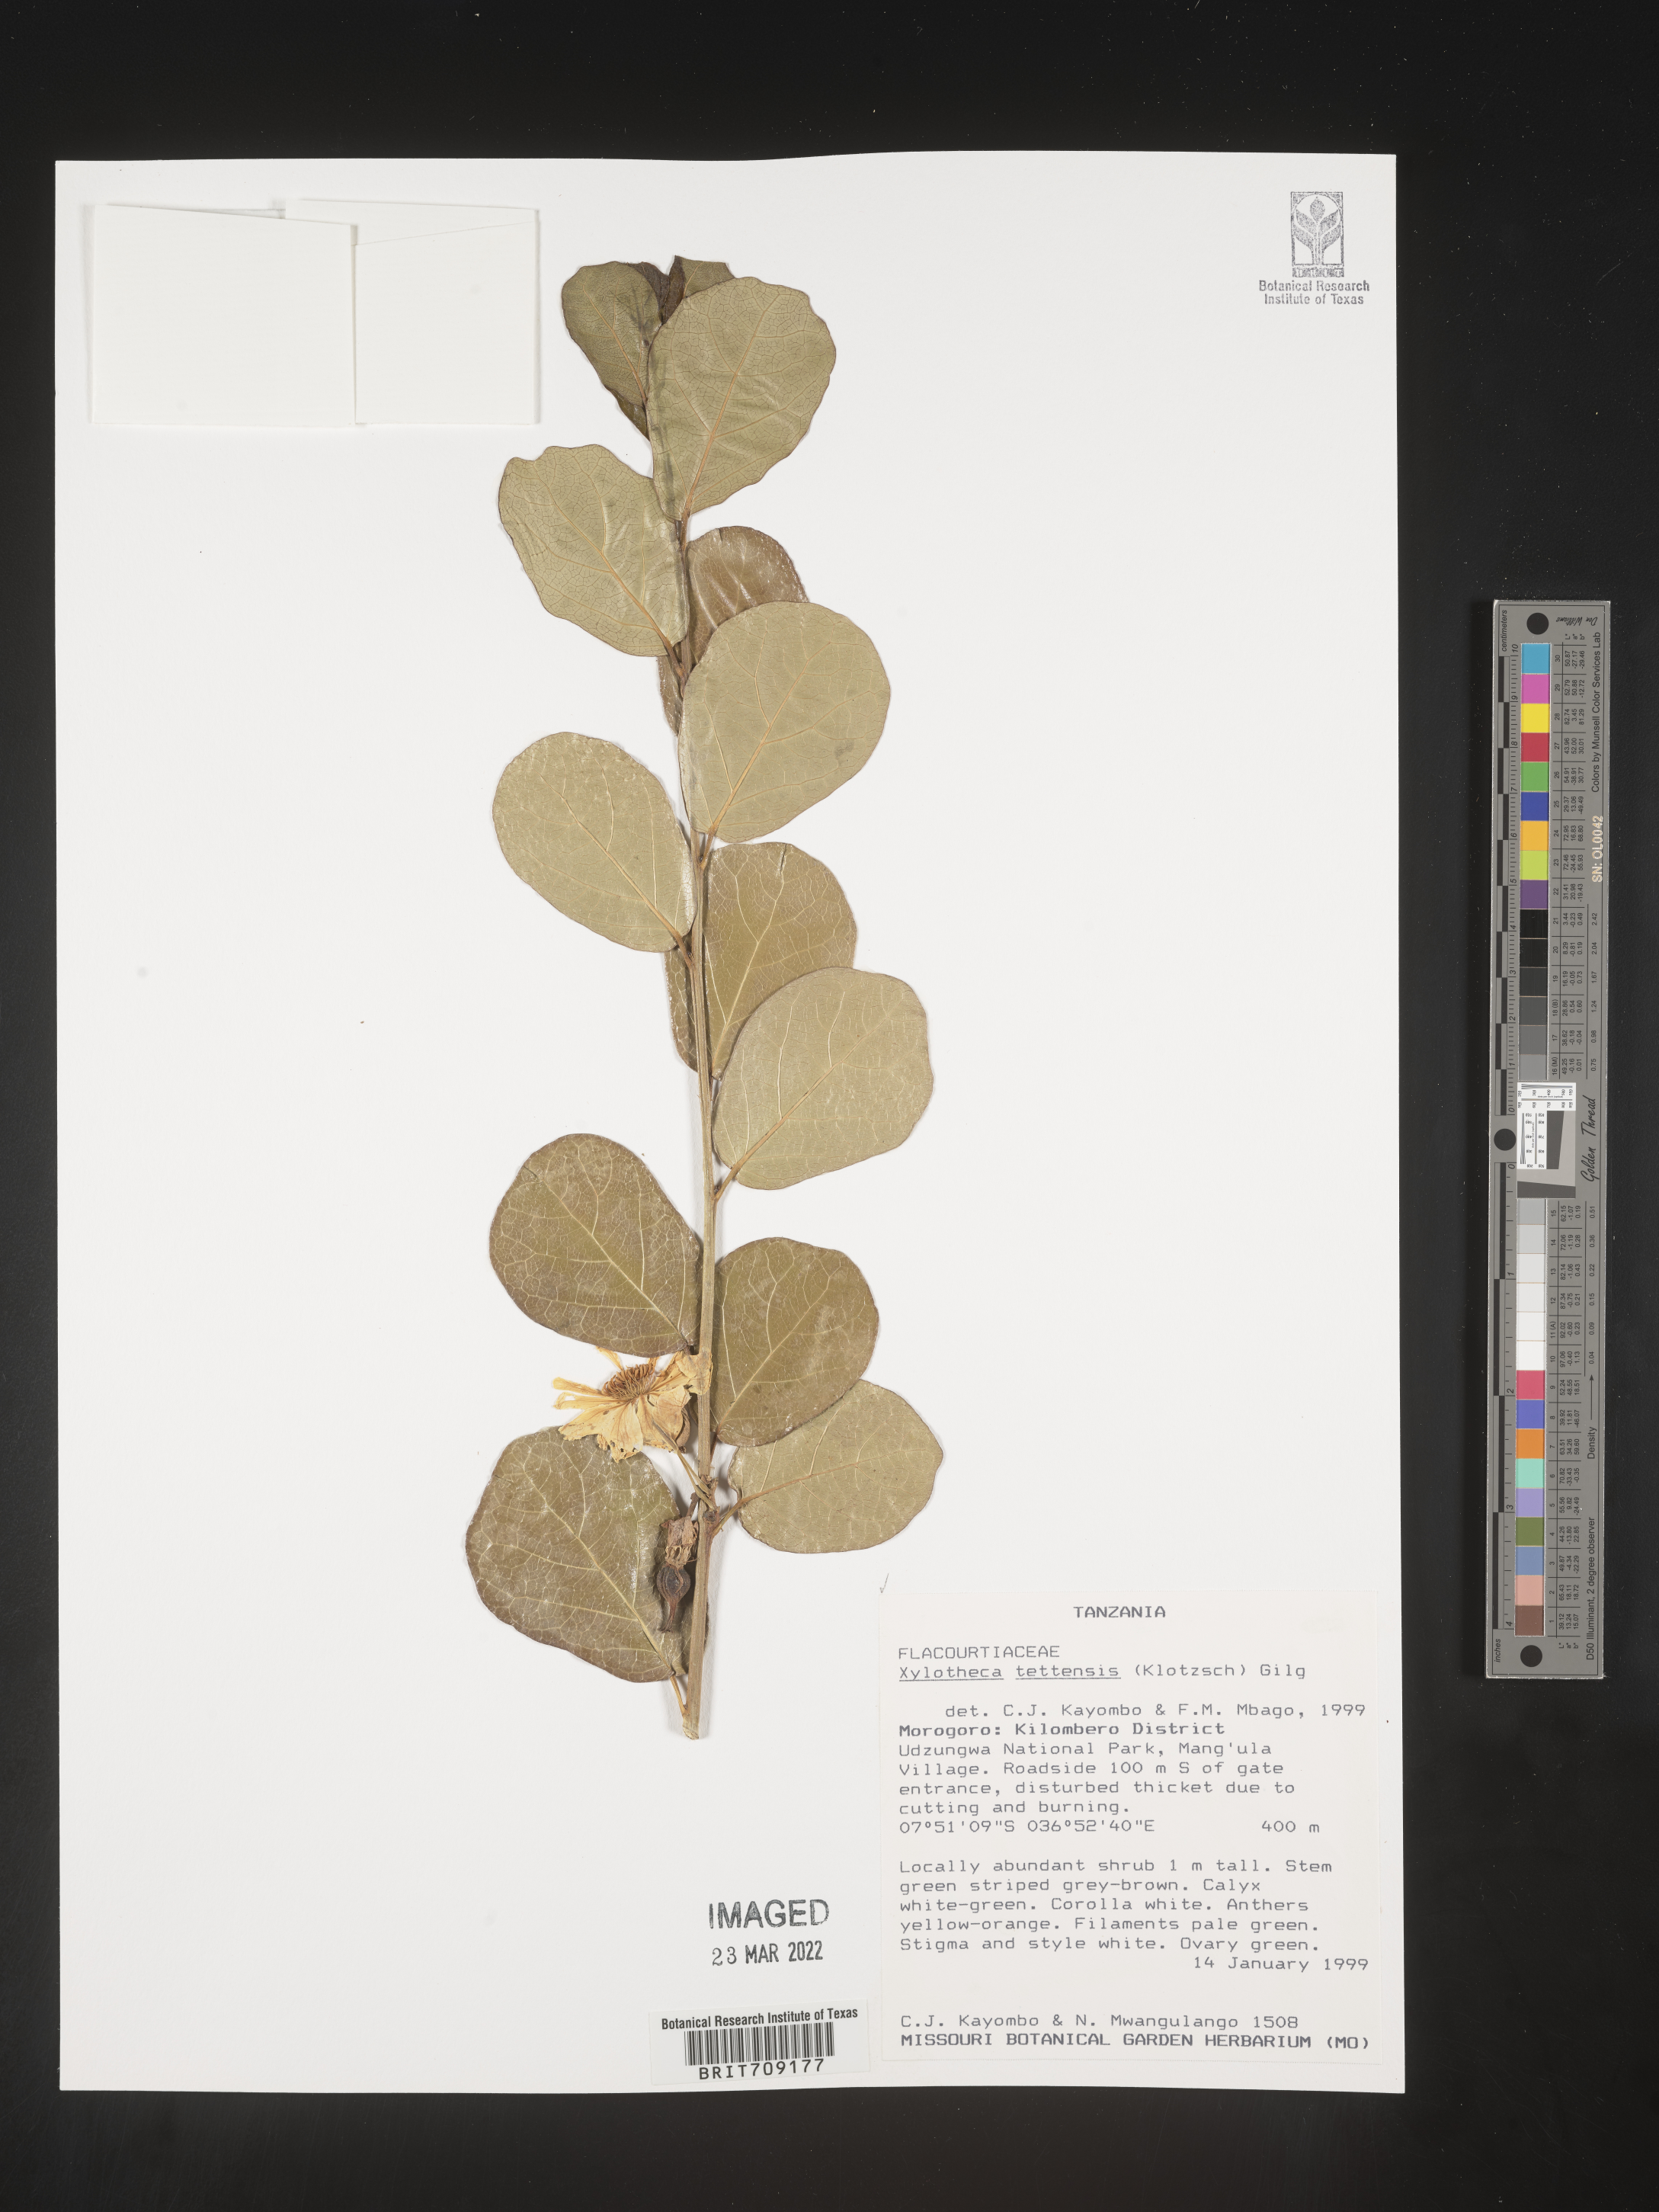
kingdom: Plantae
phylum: Tracheophyta
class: Magnoliopsida
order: Malpighiales
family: Achariaceae
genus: Xylotheca
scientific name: Xylotheca
